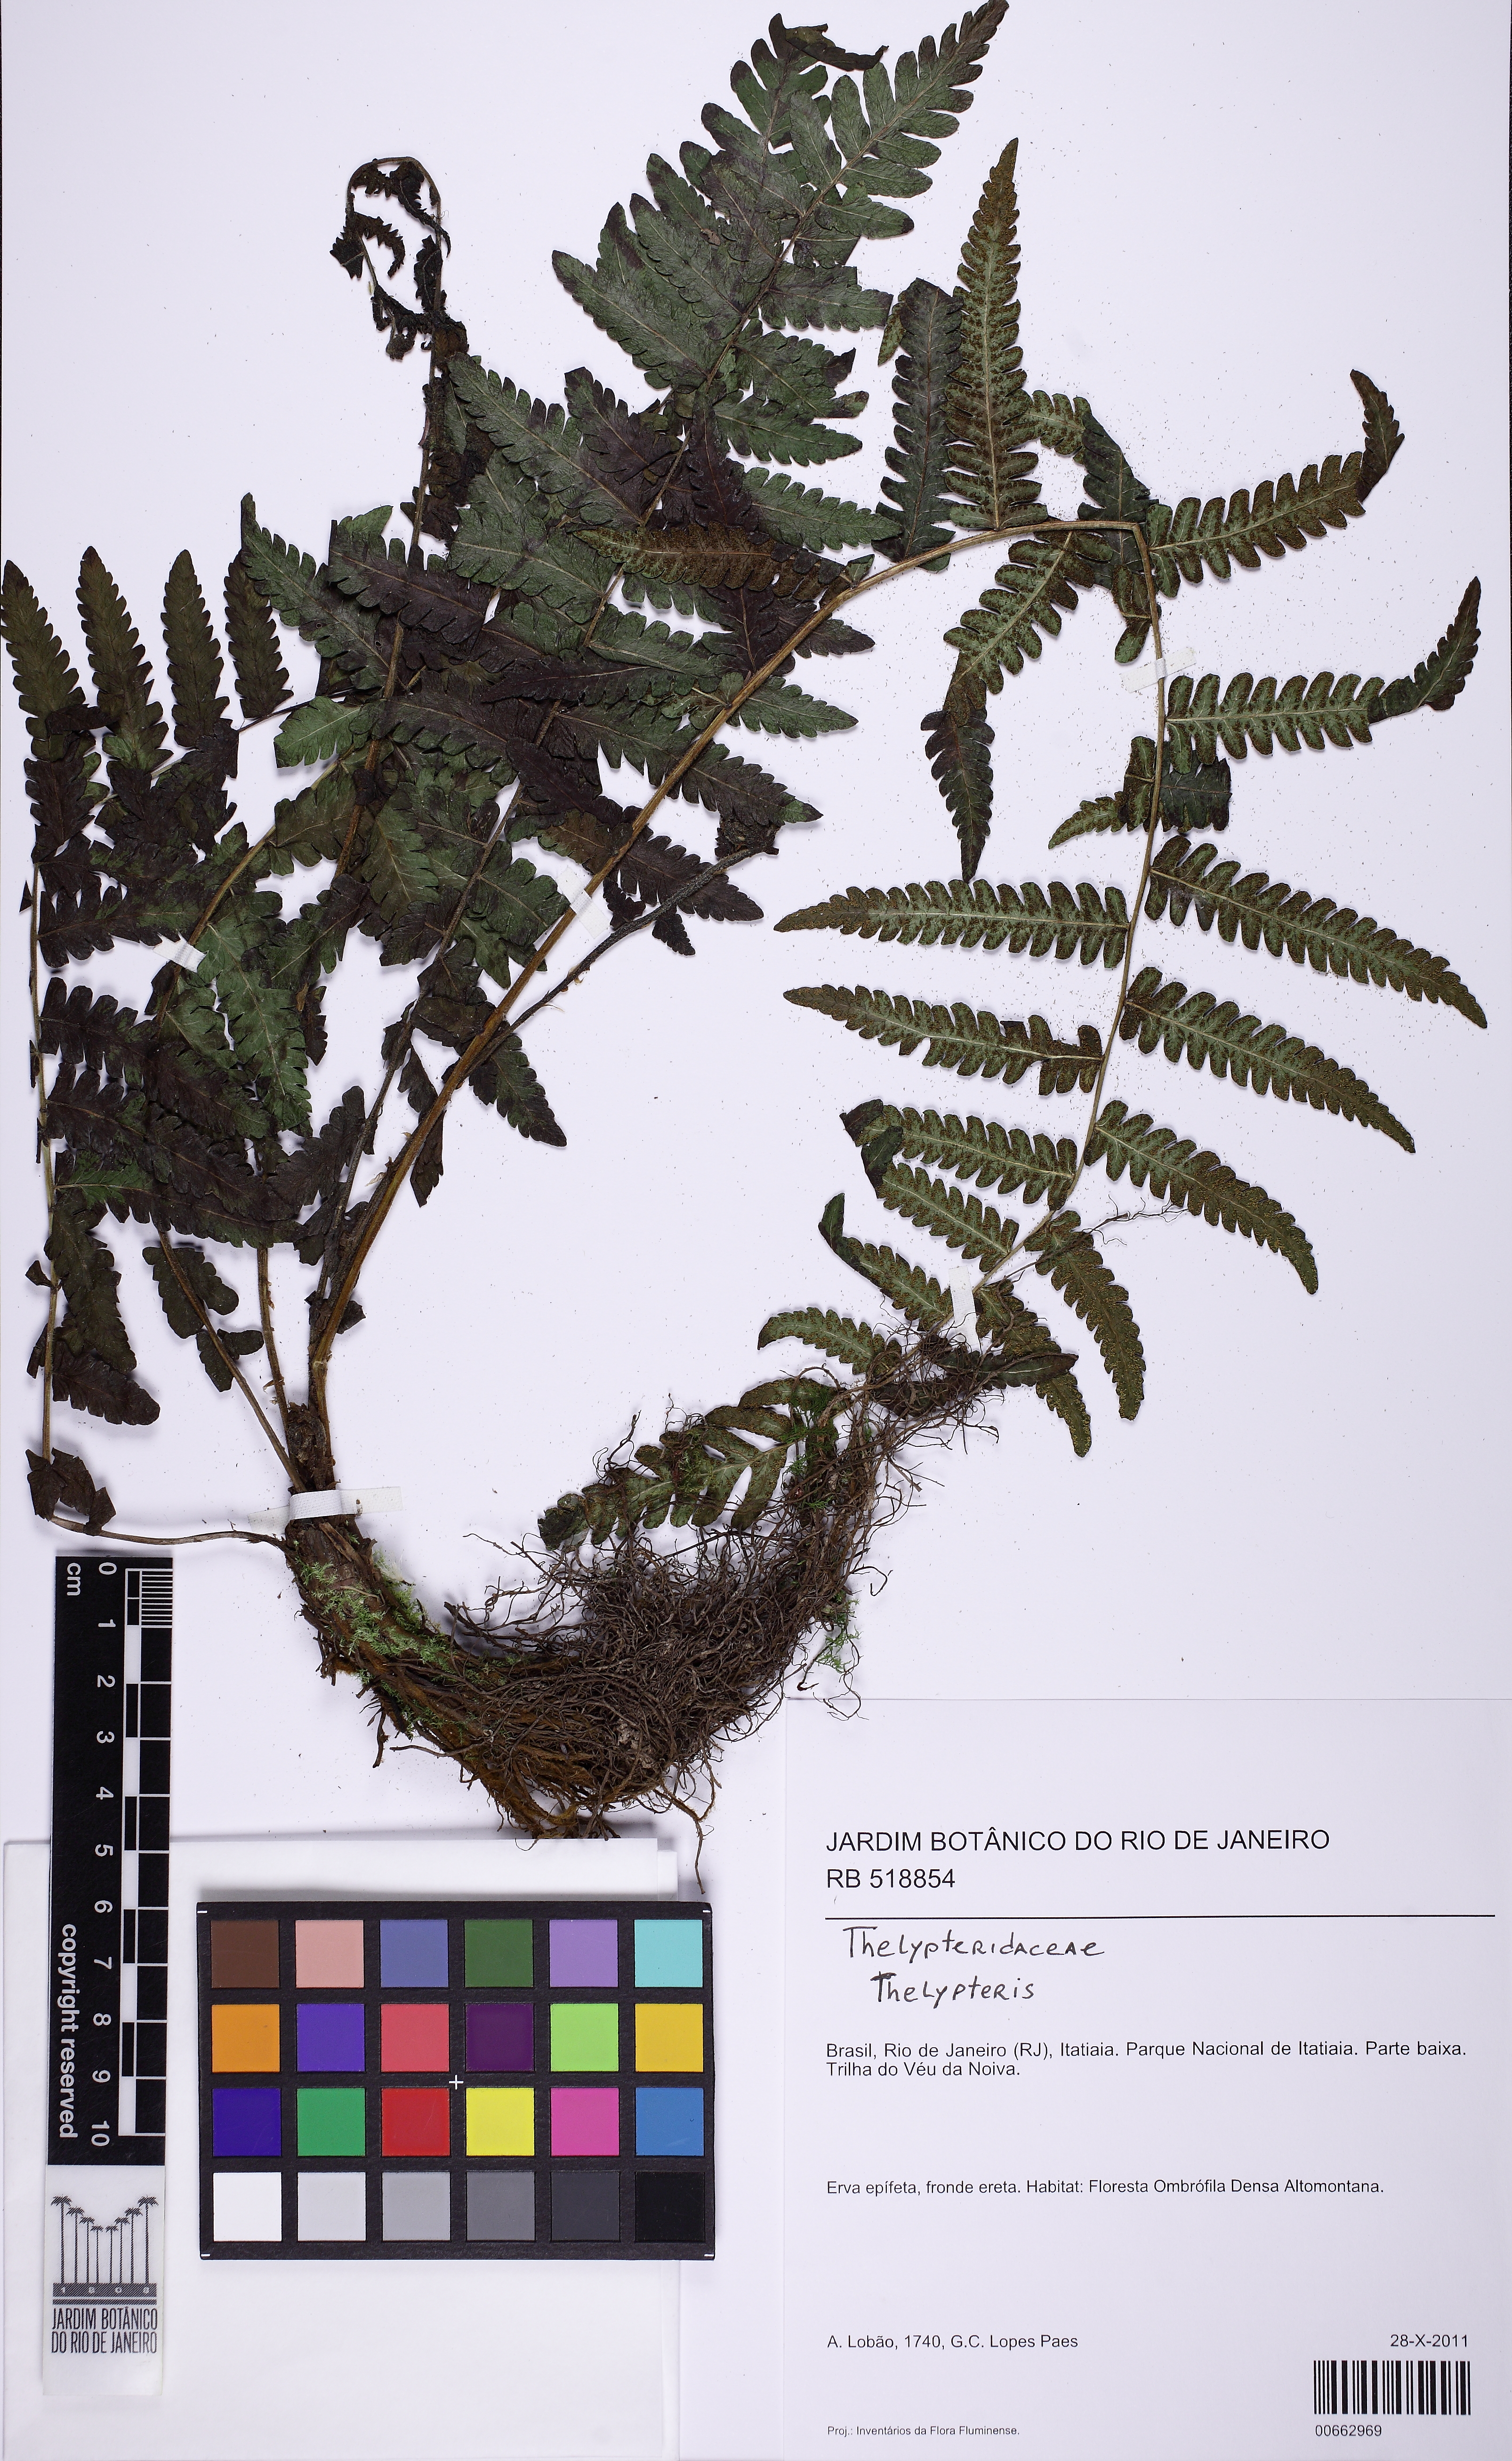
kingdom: Plantae
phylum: Tracheophyta
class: Polypodiopsida
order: Polypodiales
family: Thelypteridaceae
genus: Amauropelta
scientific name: Amauropelta amambayensis
